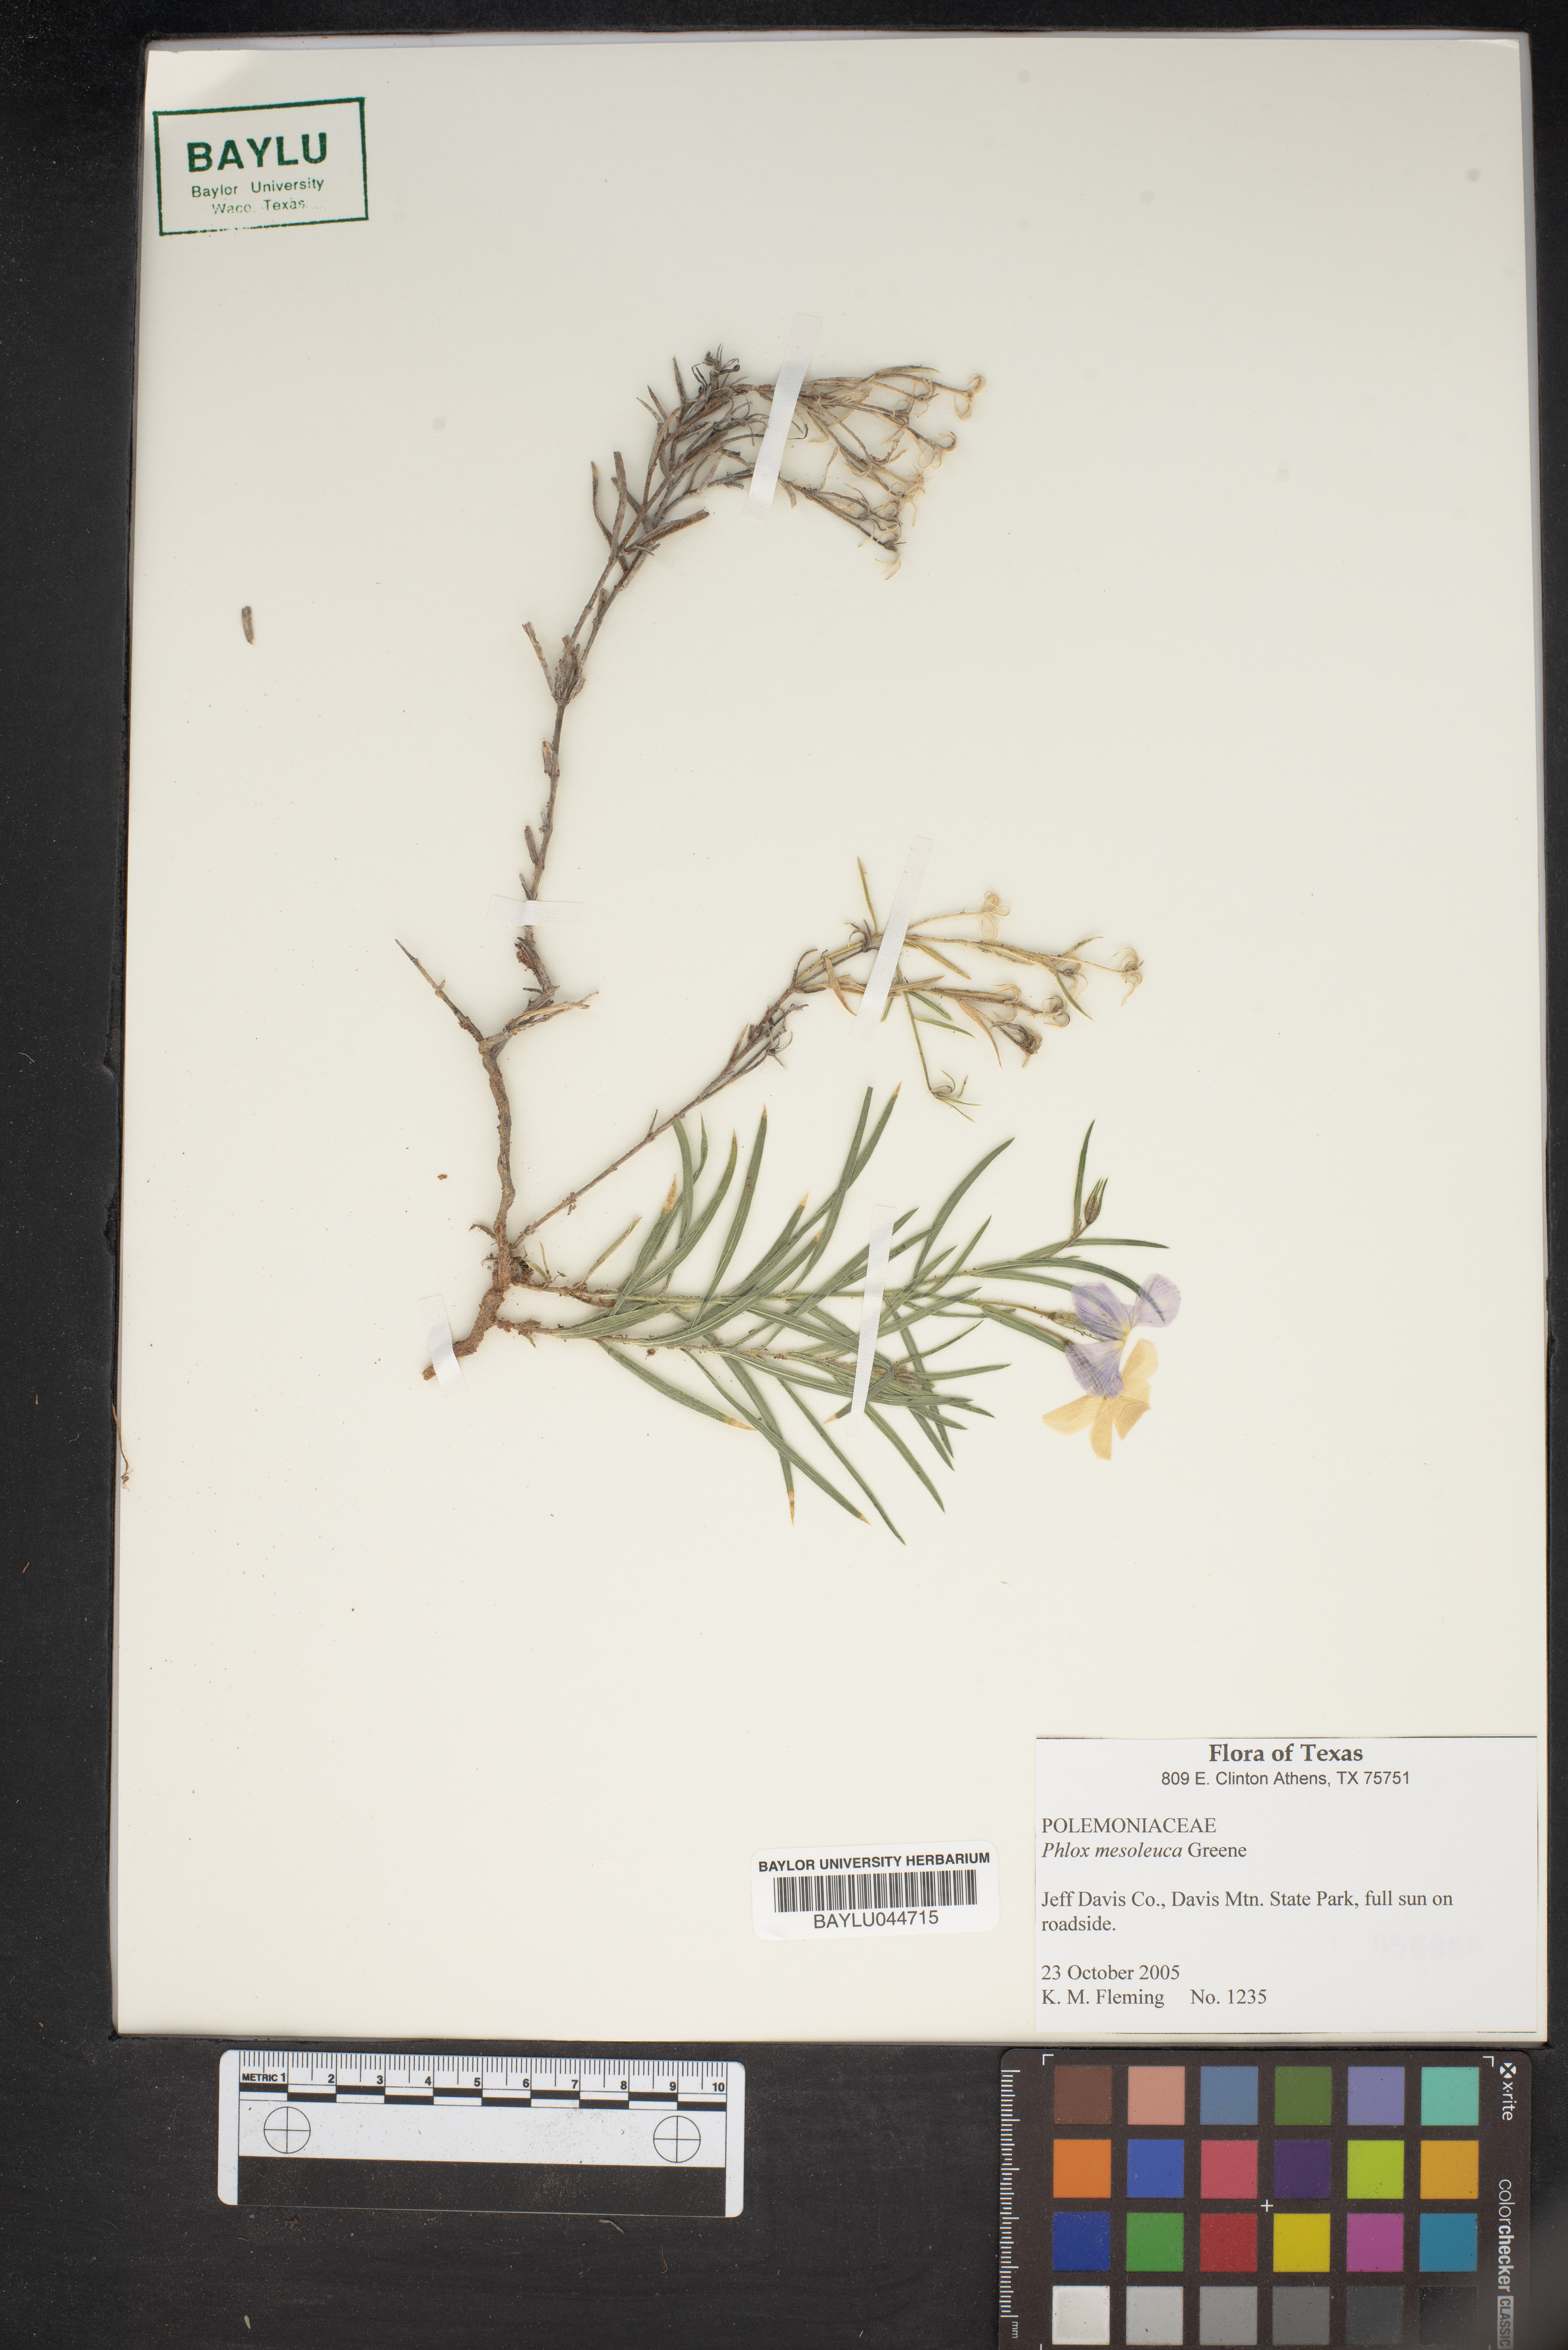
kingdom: Plantae
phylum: Tracheophyta
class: Magnoliopsida
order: Ericales
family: Polemoniaceae
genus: Phlox
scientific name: Phlox mesoleuca
